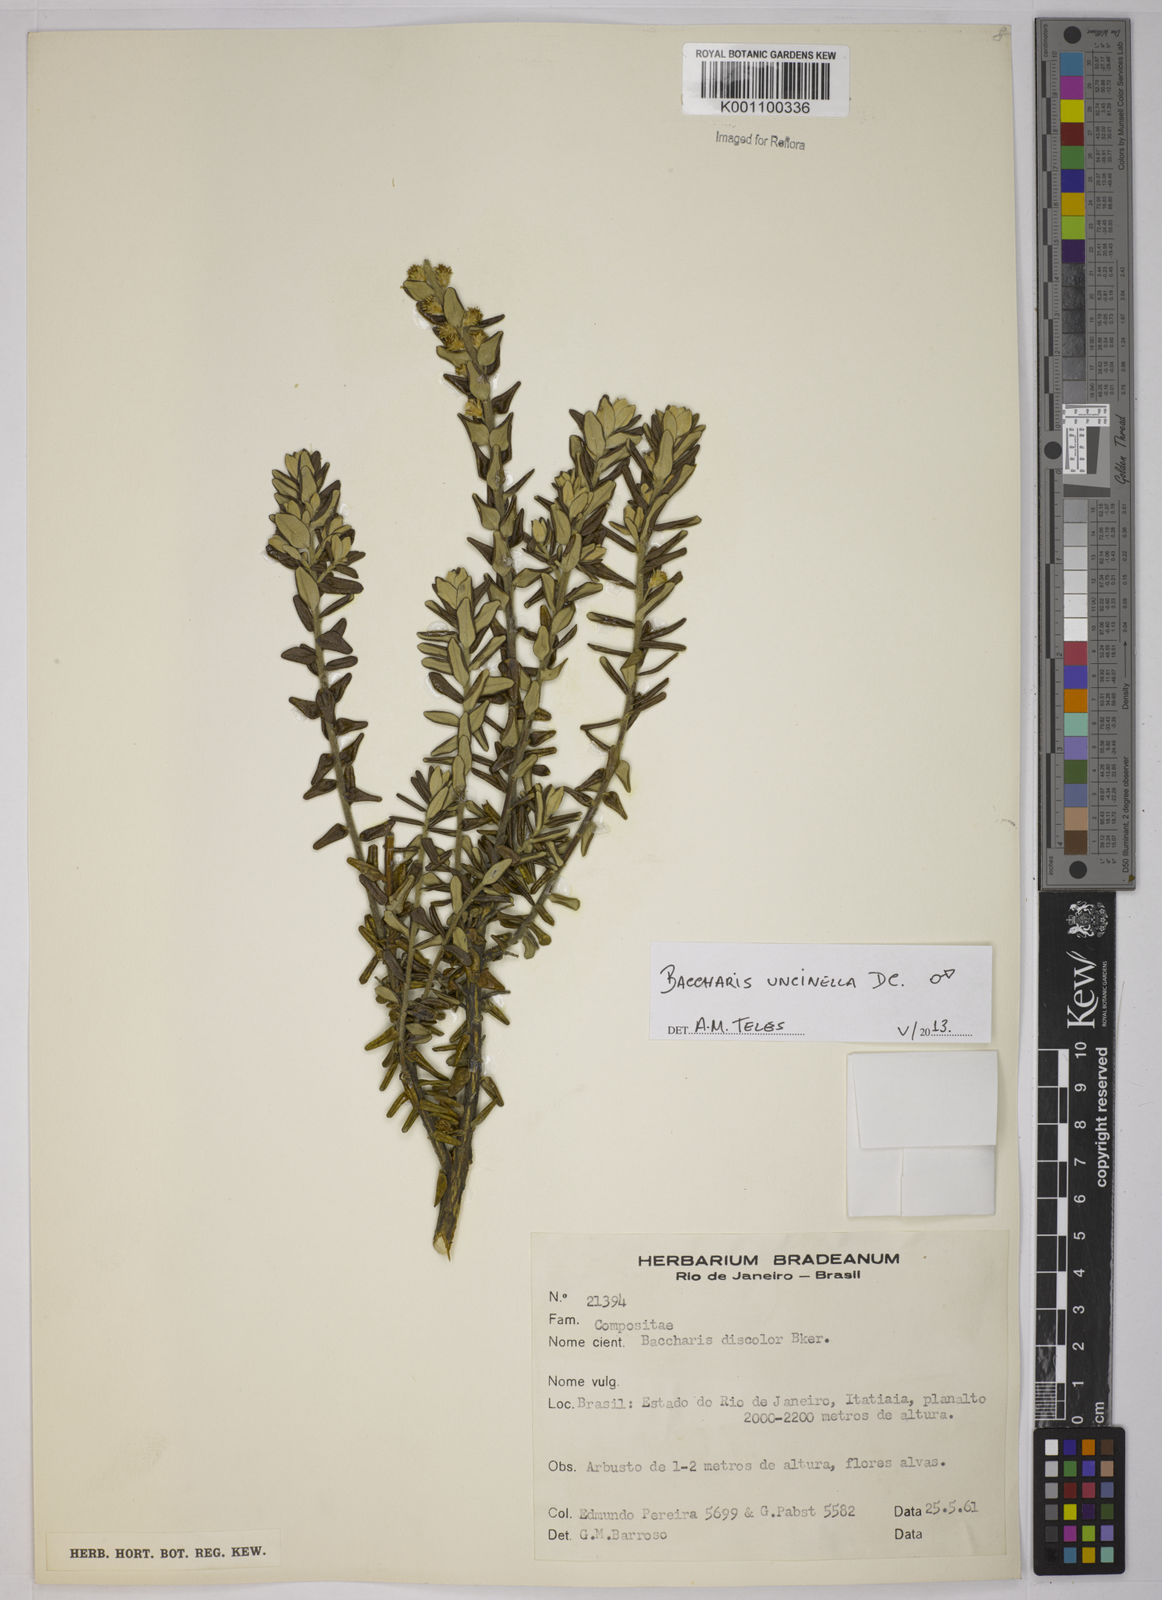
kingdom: Plantae
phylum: Tracheophyta
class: Magnoliopsida
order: Asterales
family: Asteraceae
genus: Baccharis
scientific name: Baccharis uncinella
